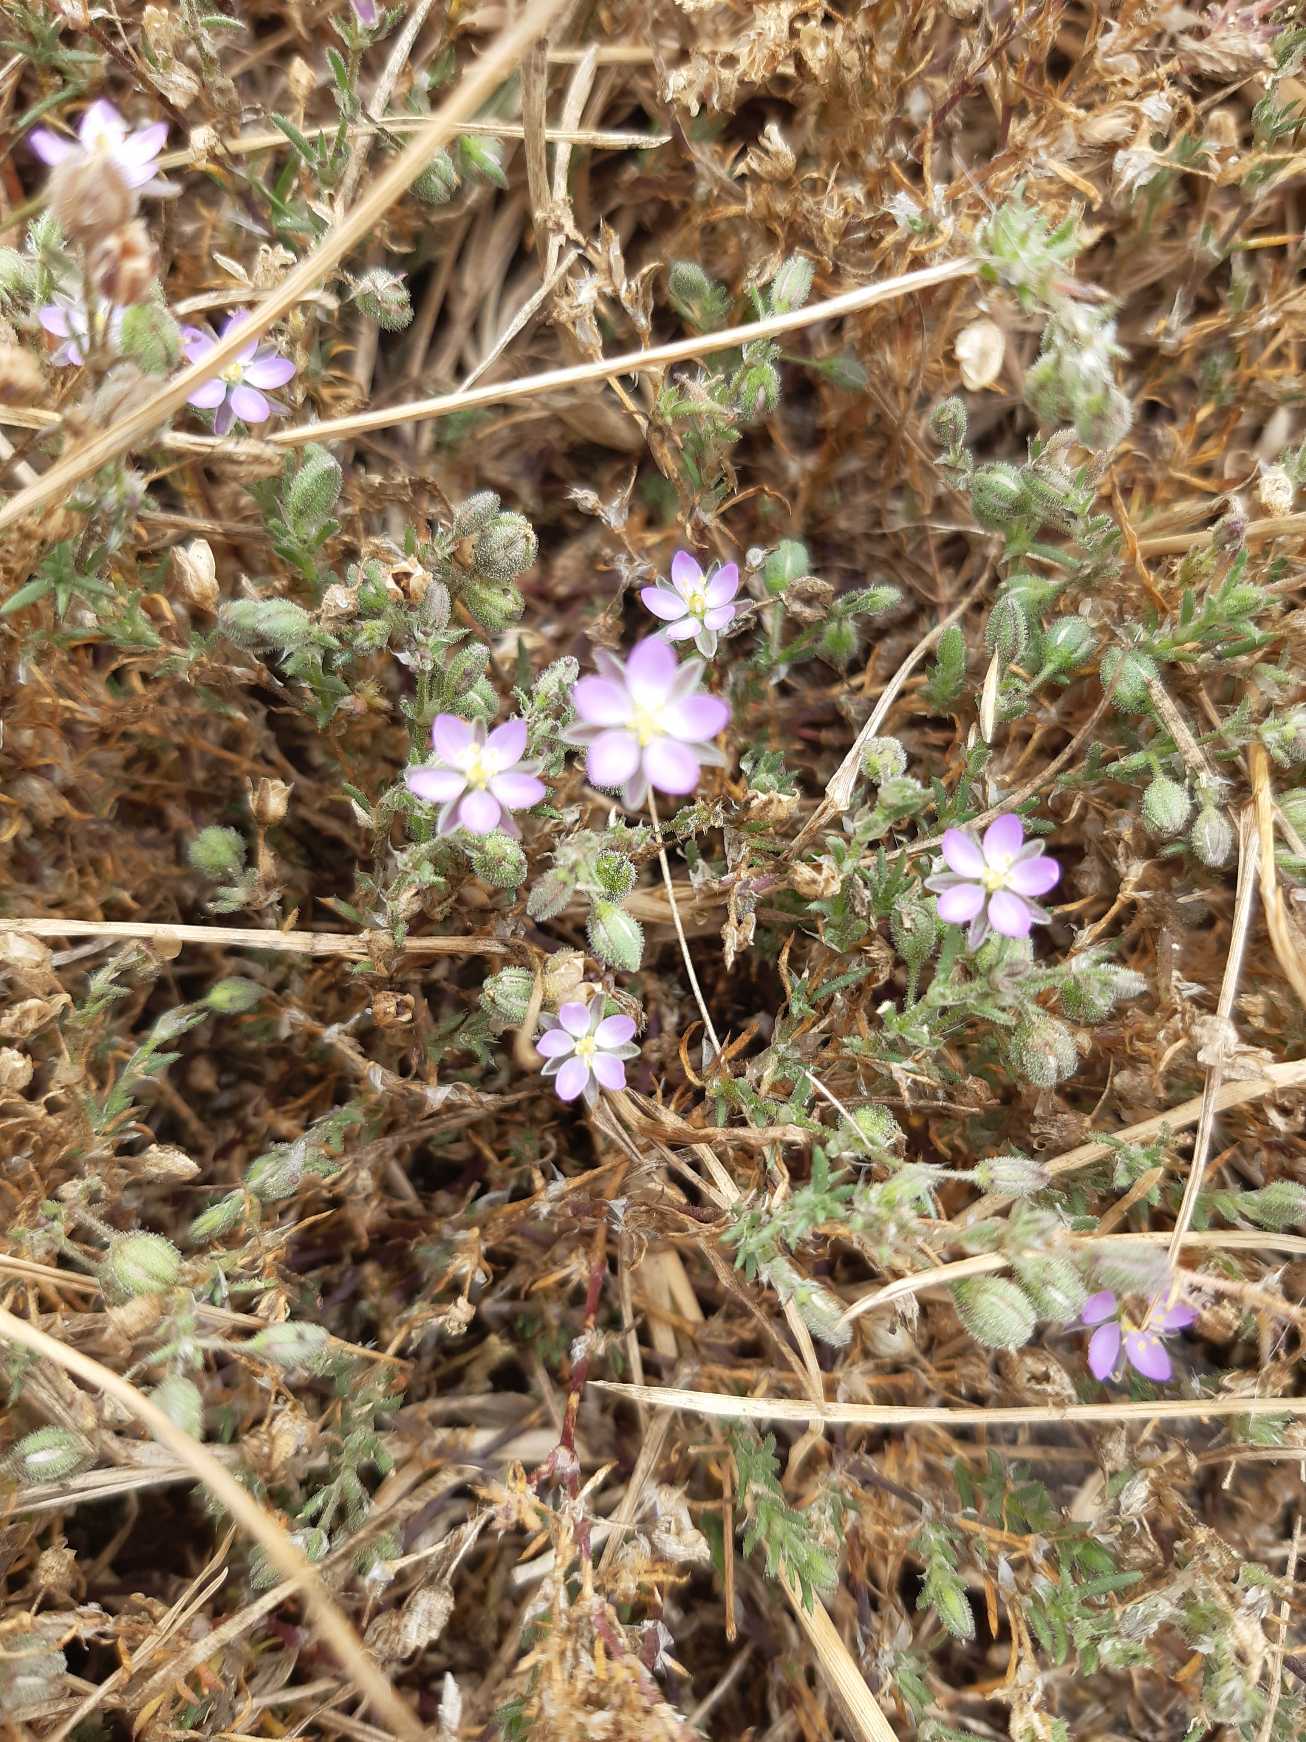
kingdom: Plantae
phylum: Tracheophyta
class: Magnoliopsida
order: Caryophyllales
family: Caryophyllaceae
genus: Spergularia
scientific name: Spergularia rubra
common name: Mark-hindeknæ
